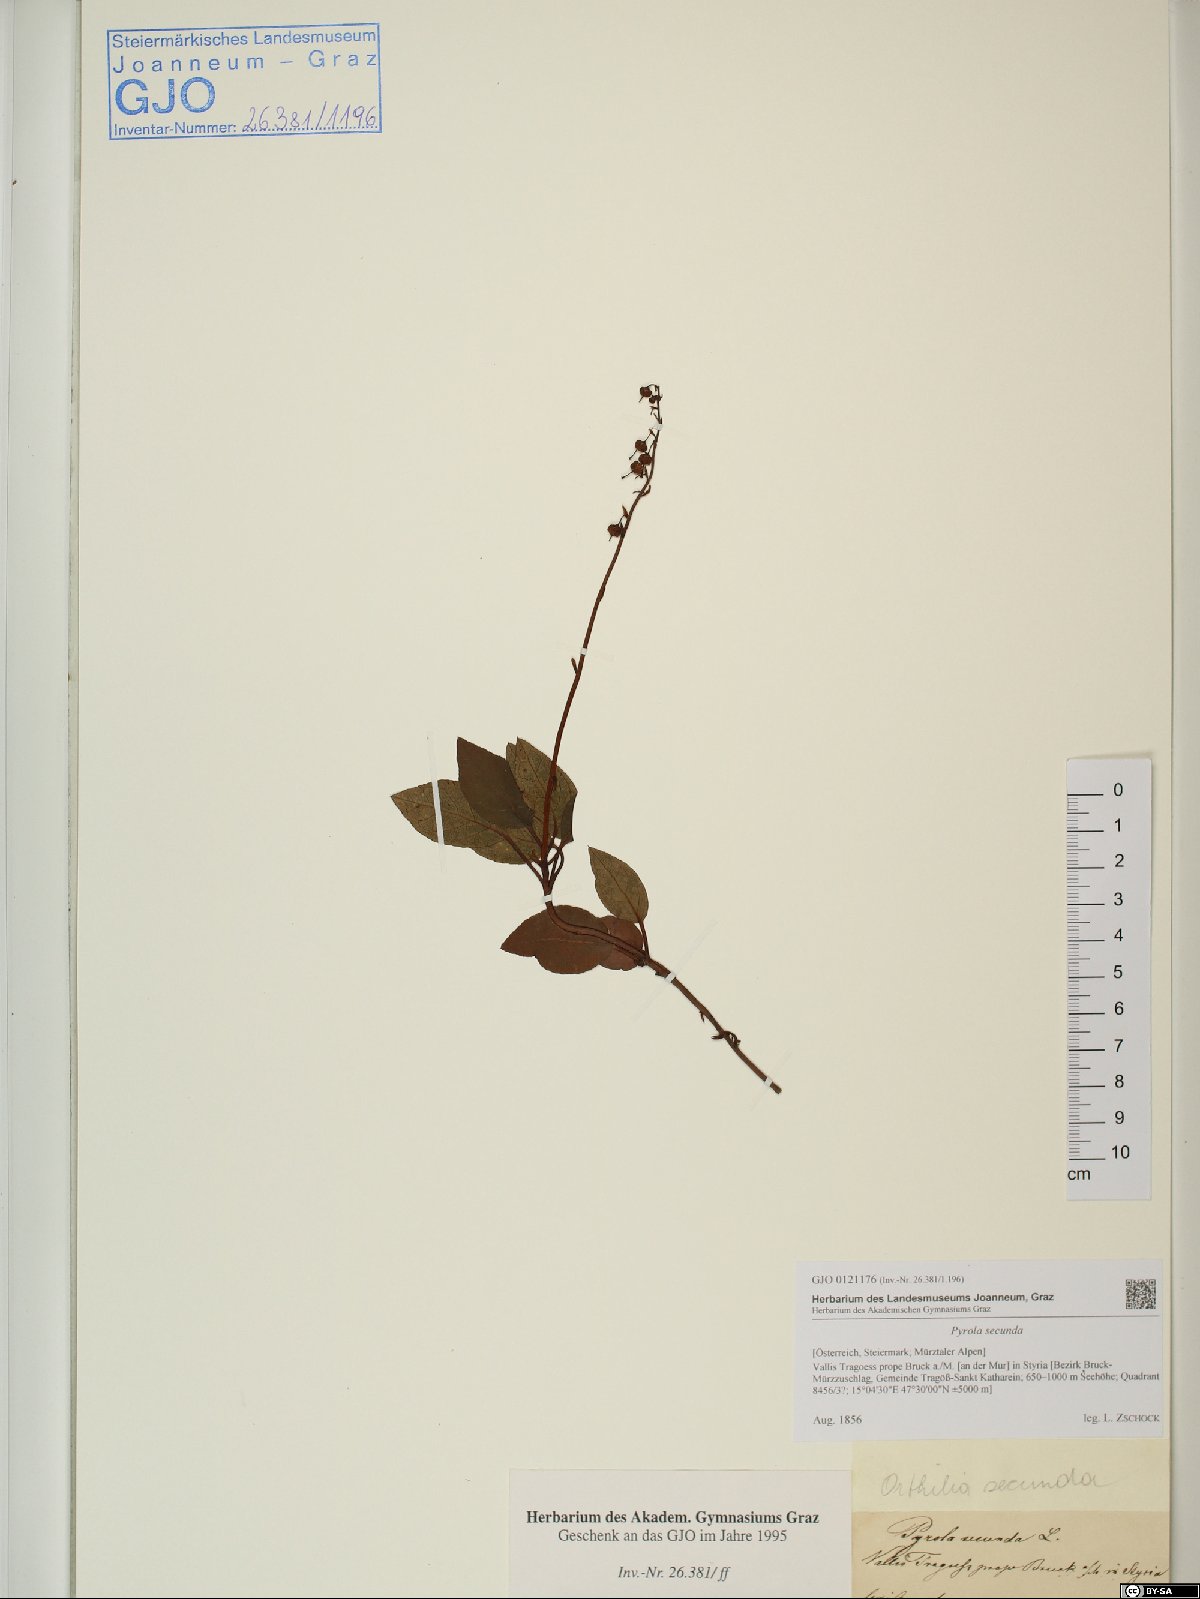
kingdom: Plantae
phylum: Tracheophyta
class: Magnoliopsida
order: Ericales
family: Ericaceae
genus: Orthilia
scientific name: Orthilia secunda
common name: One-sided orthilia
